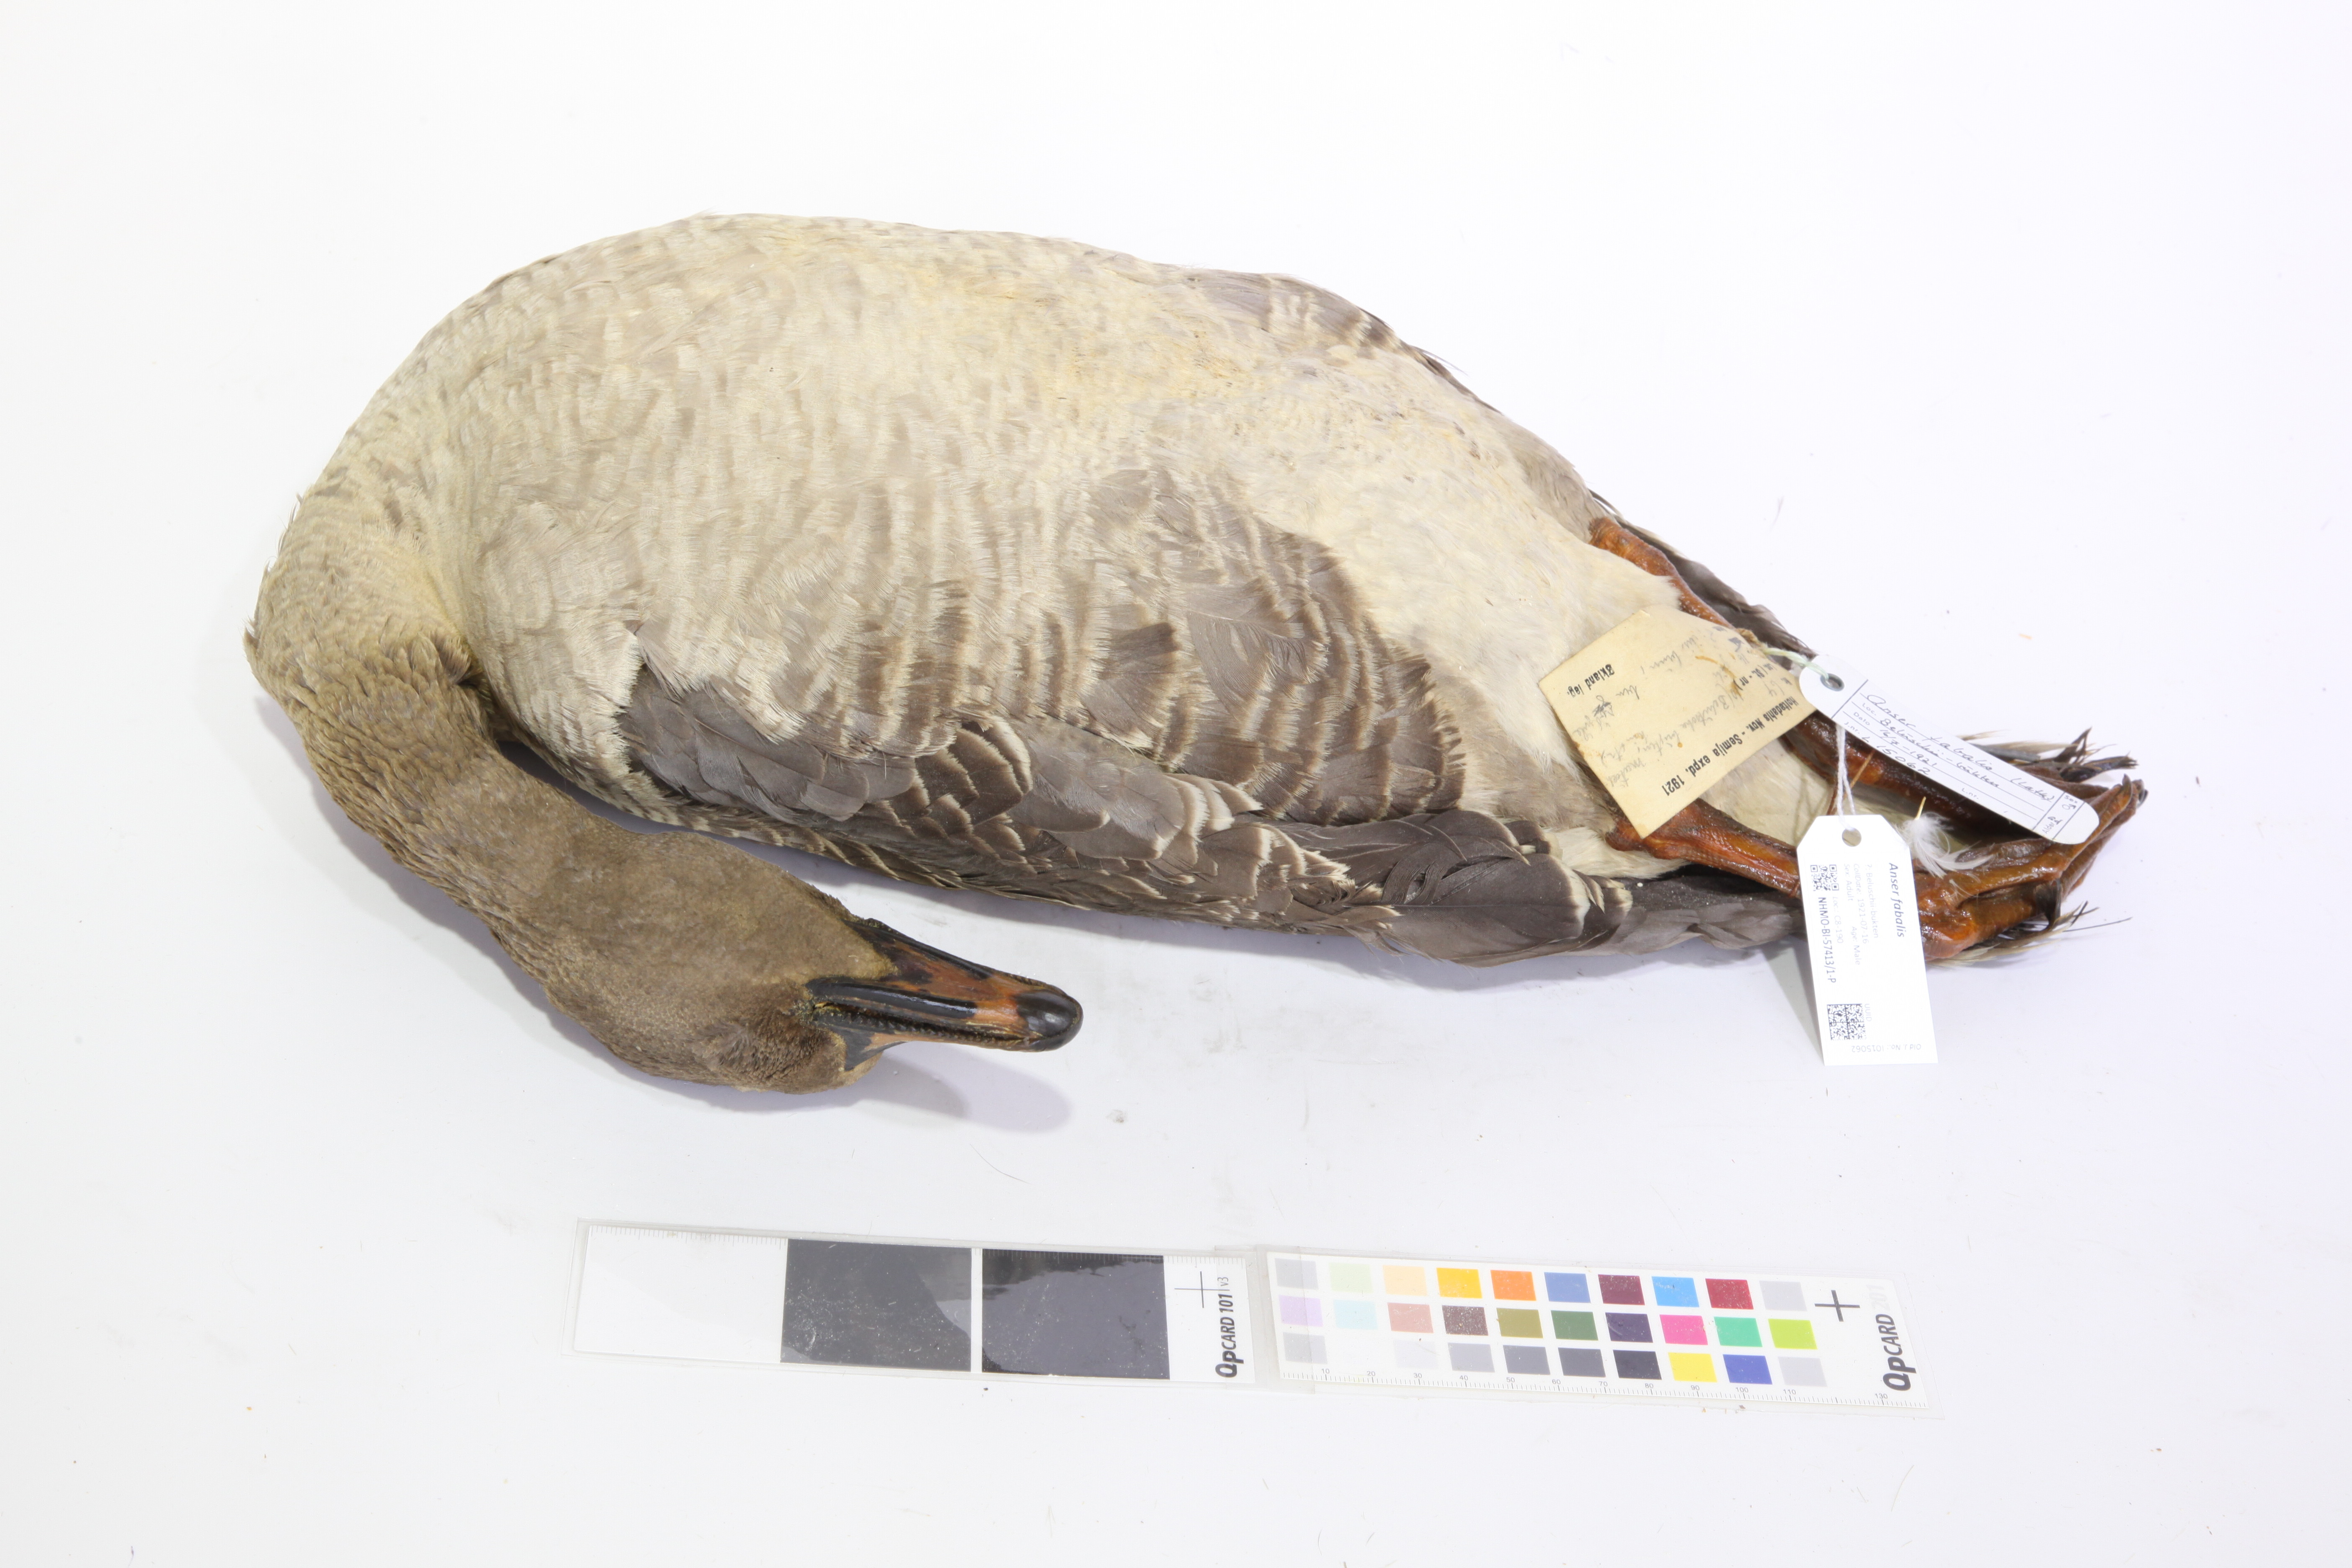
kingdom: Animalia
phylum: Chordata
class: Aves
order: Anseriformes
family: Anatidae
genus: Anser
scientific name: Anser serrirostris
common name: Tundra bean goose
